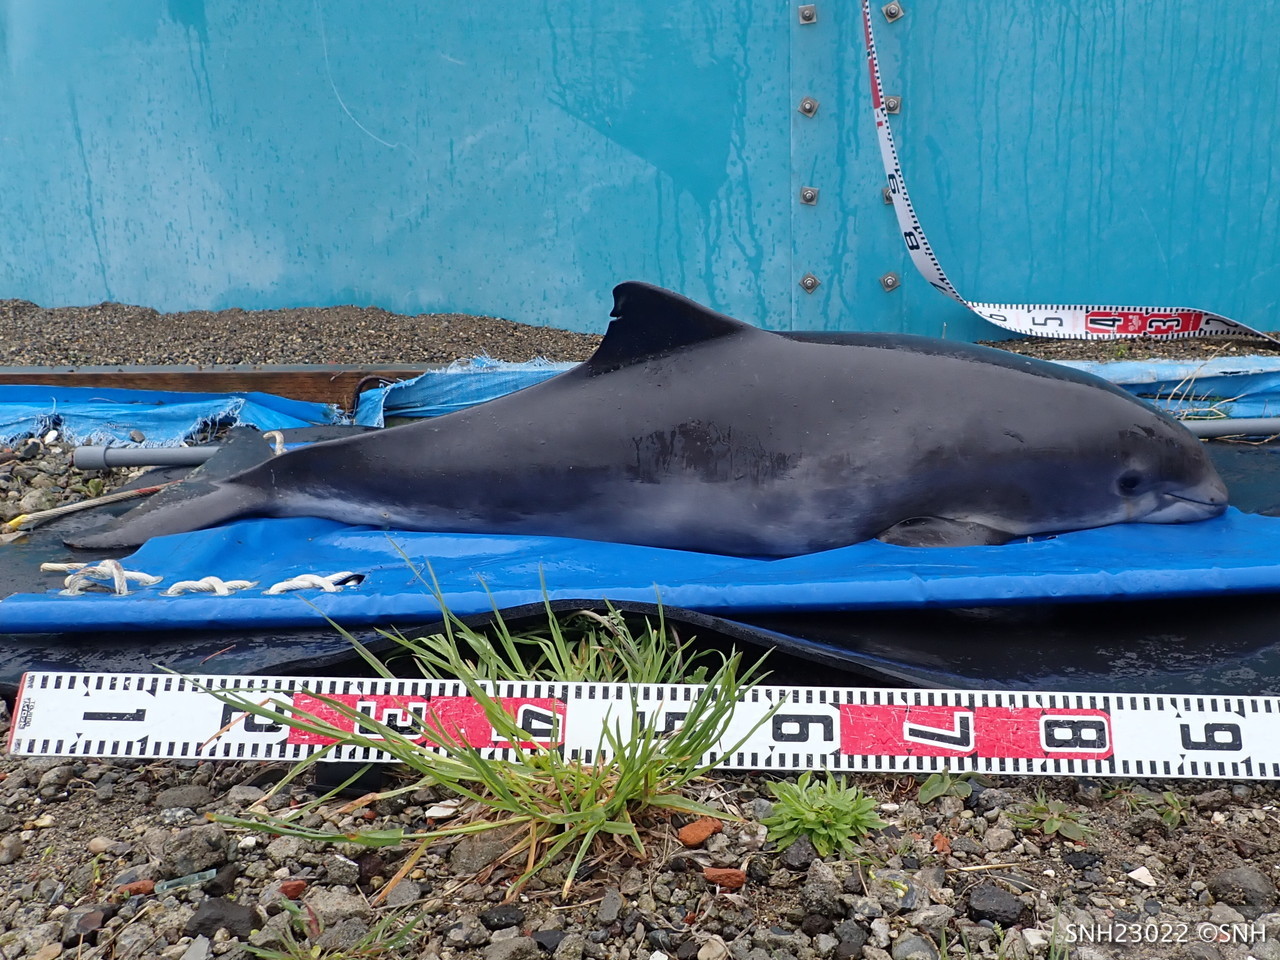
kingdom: Animalia
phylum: Chordata
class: Mammalia
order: Cetacea
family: Phocoenidae
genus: Phocoena
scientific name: Phocoena phocoena
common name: Harbour porpoise
